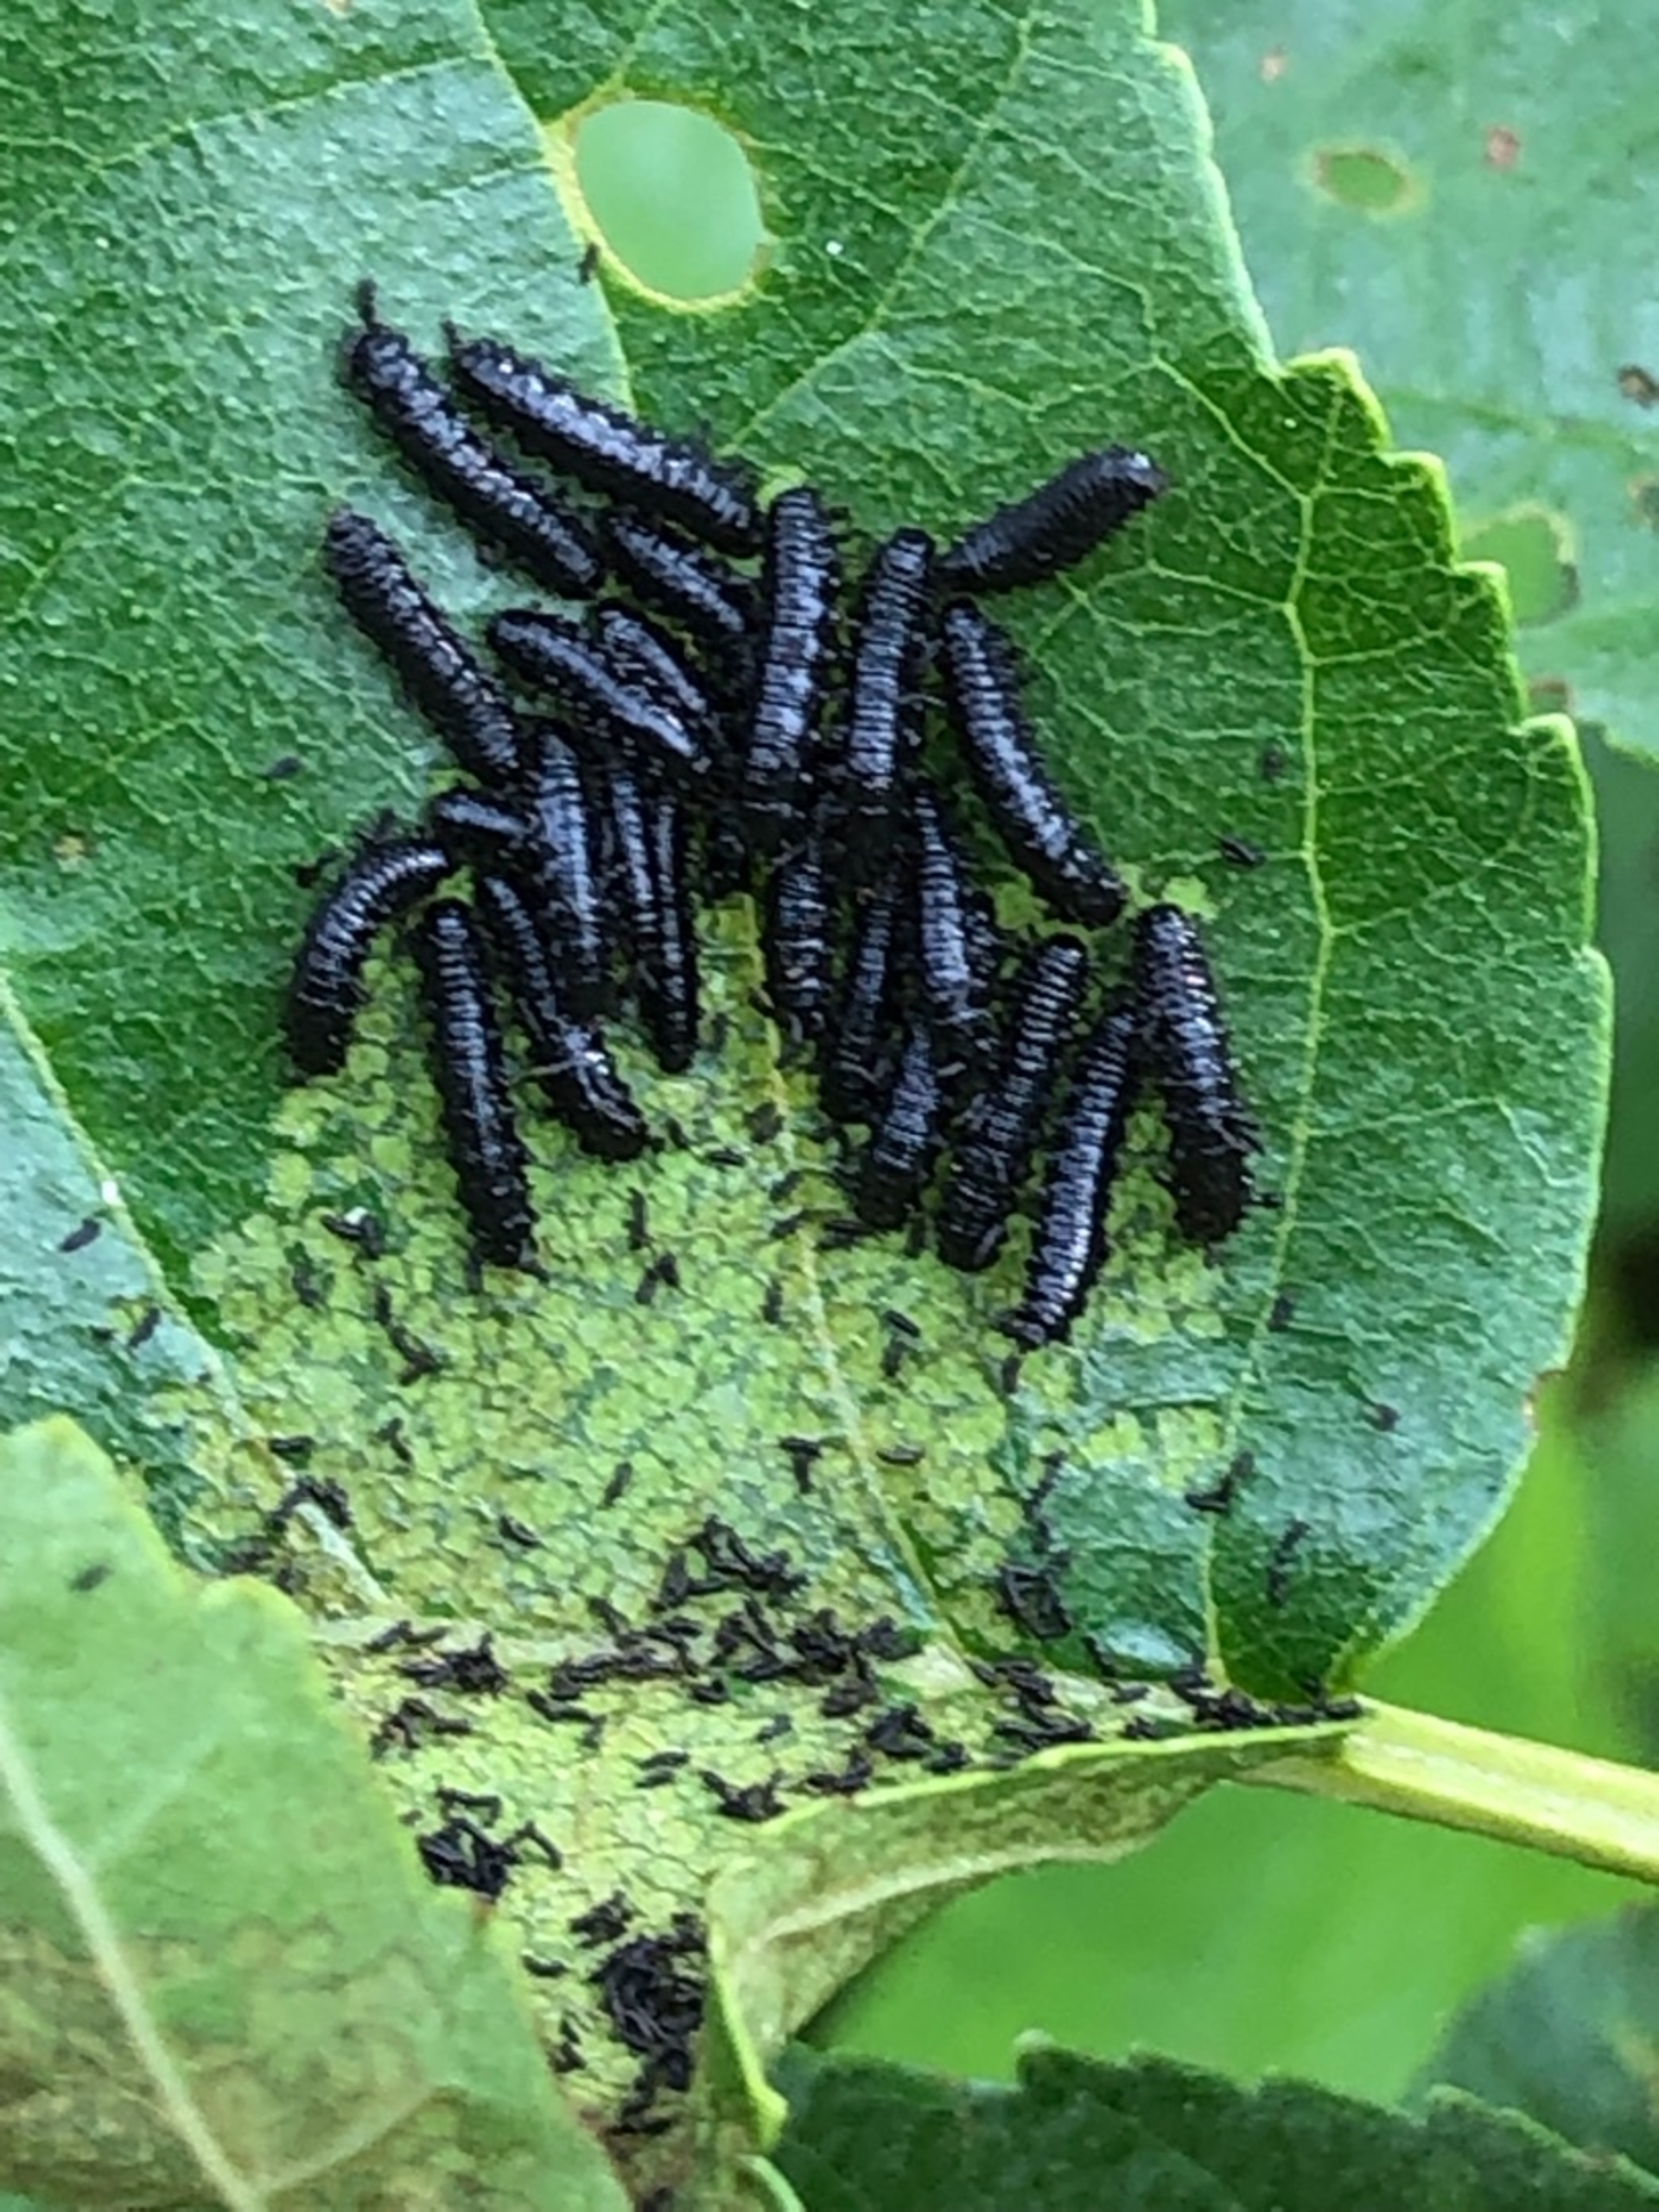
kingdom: Animalia
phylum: Arthropoda
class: Insecta
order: Coleoptera
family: Chrysomelidae
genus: Agelastica
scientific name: Agelastica alni
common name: Ellebladbille
